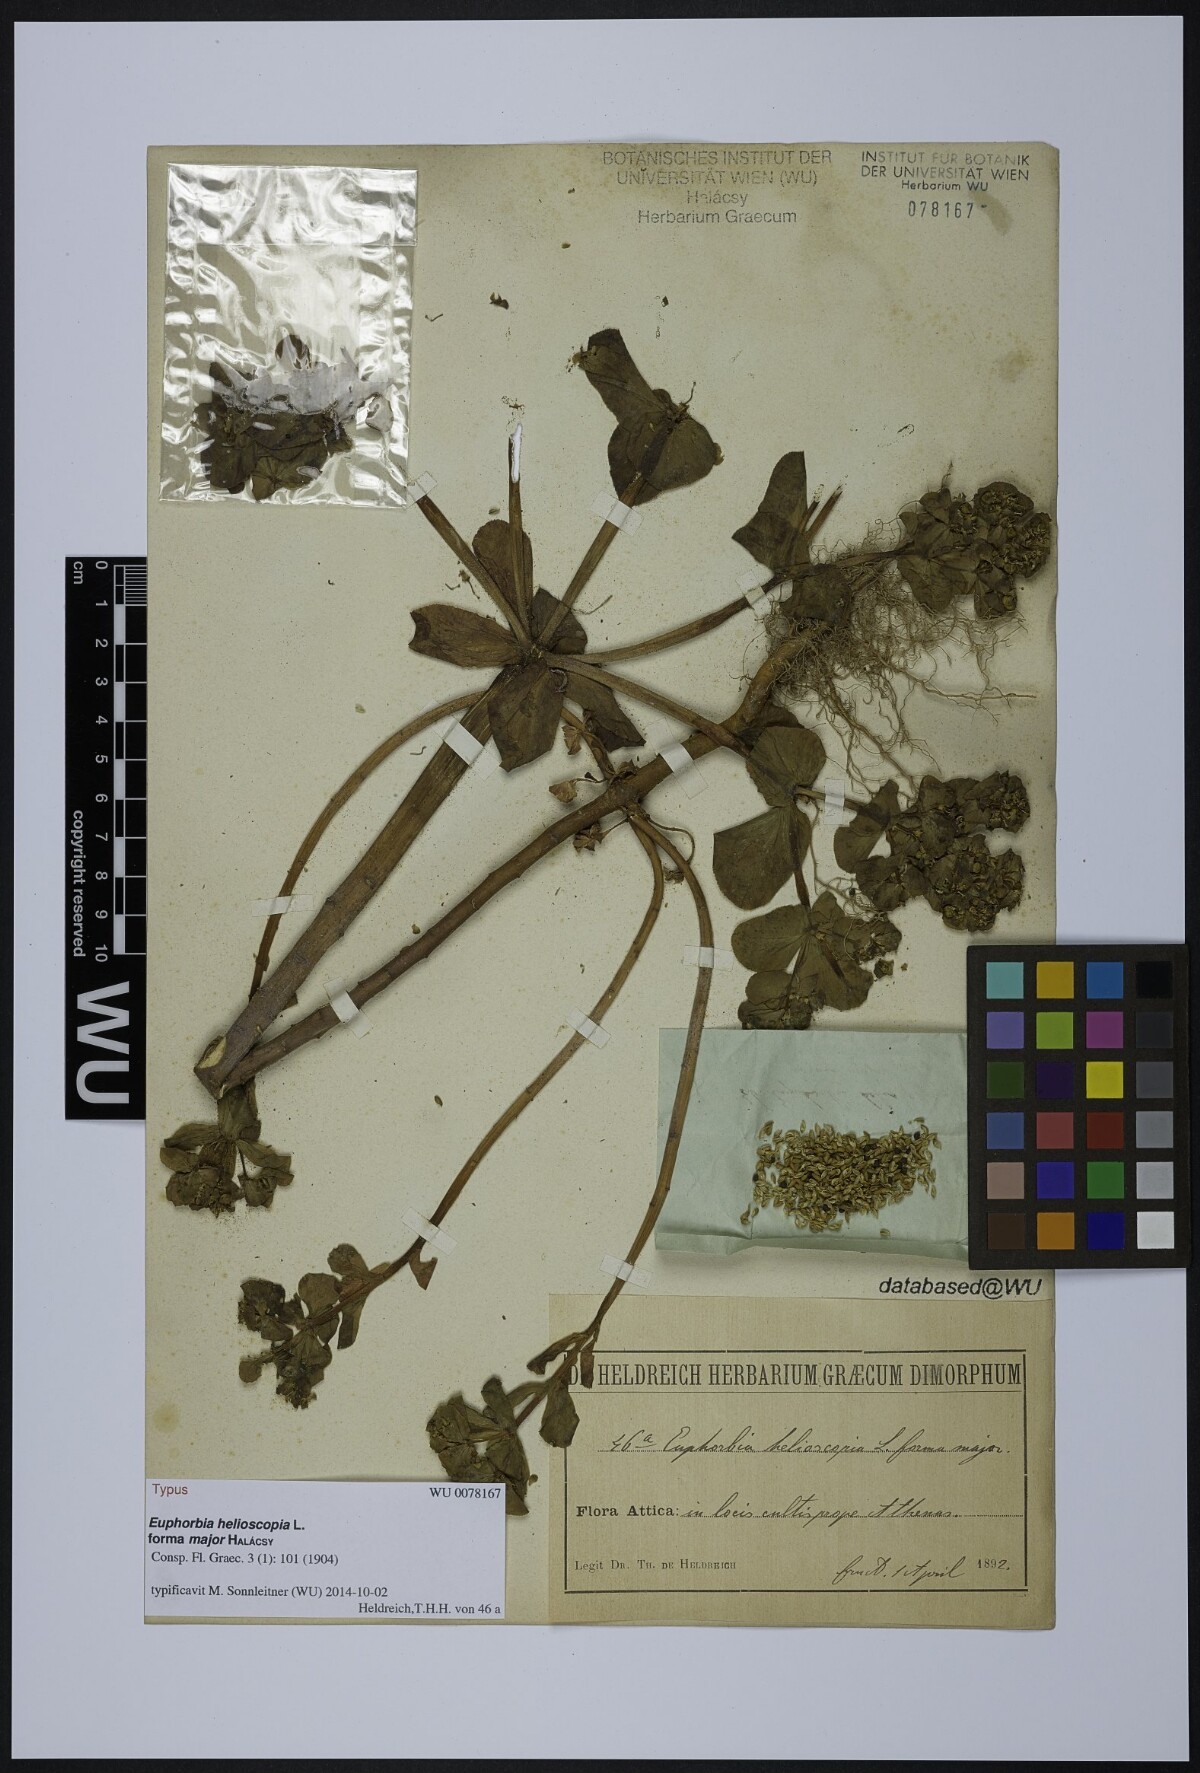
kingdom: Plantae
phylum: Tracheophyta
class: Magnoliopsida
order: Malpighiales
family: Euphorbiaceae
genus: Euphorbia
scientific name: Euphorbia helioscopia
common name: Sun spurge
